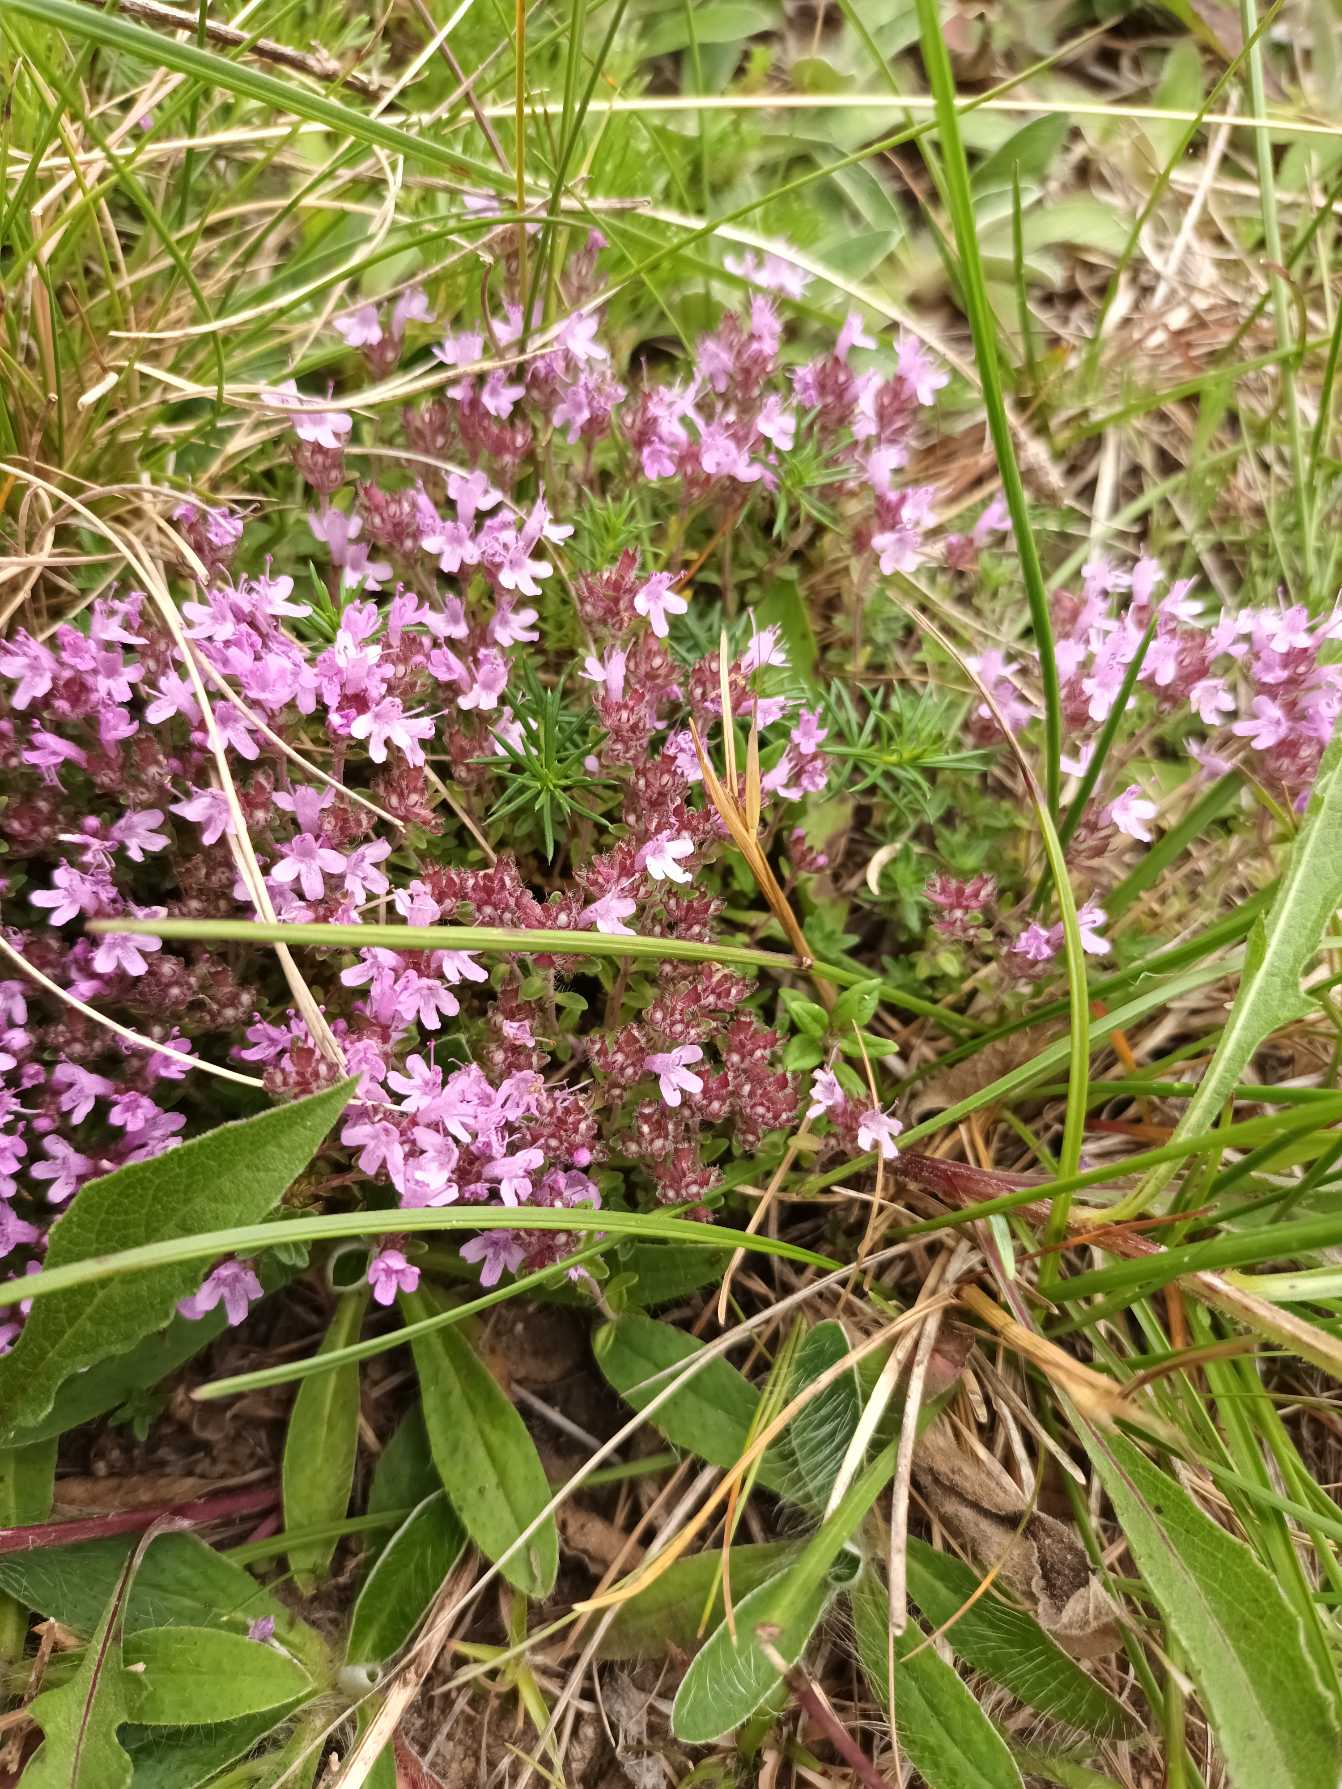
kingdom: Plantae
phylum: Tracheophyta
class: Magnoliopsida
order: Lamiales
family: Lamiaceae
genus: Thymus
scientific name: Thymus serpyllum
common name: Smalbladet timian
